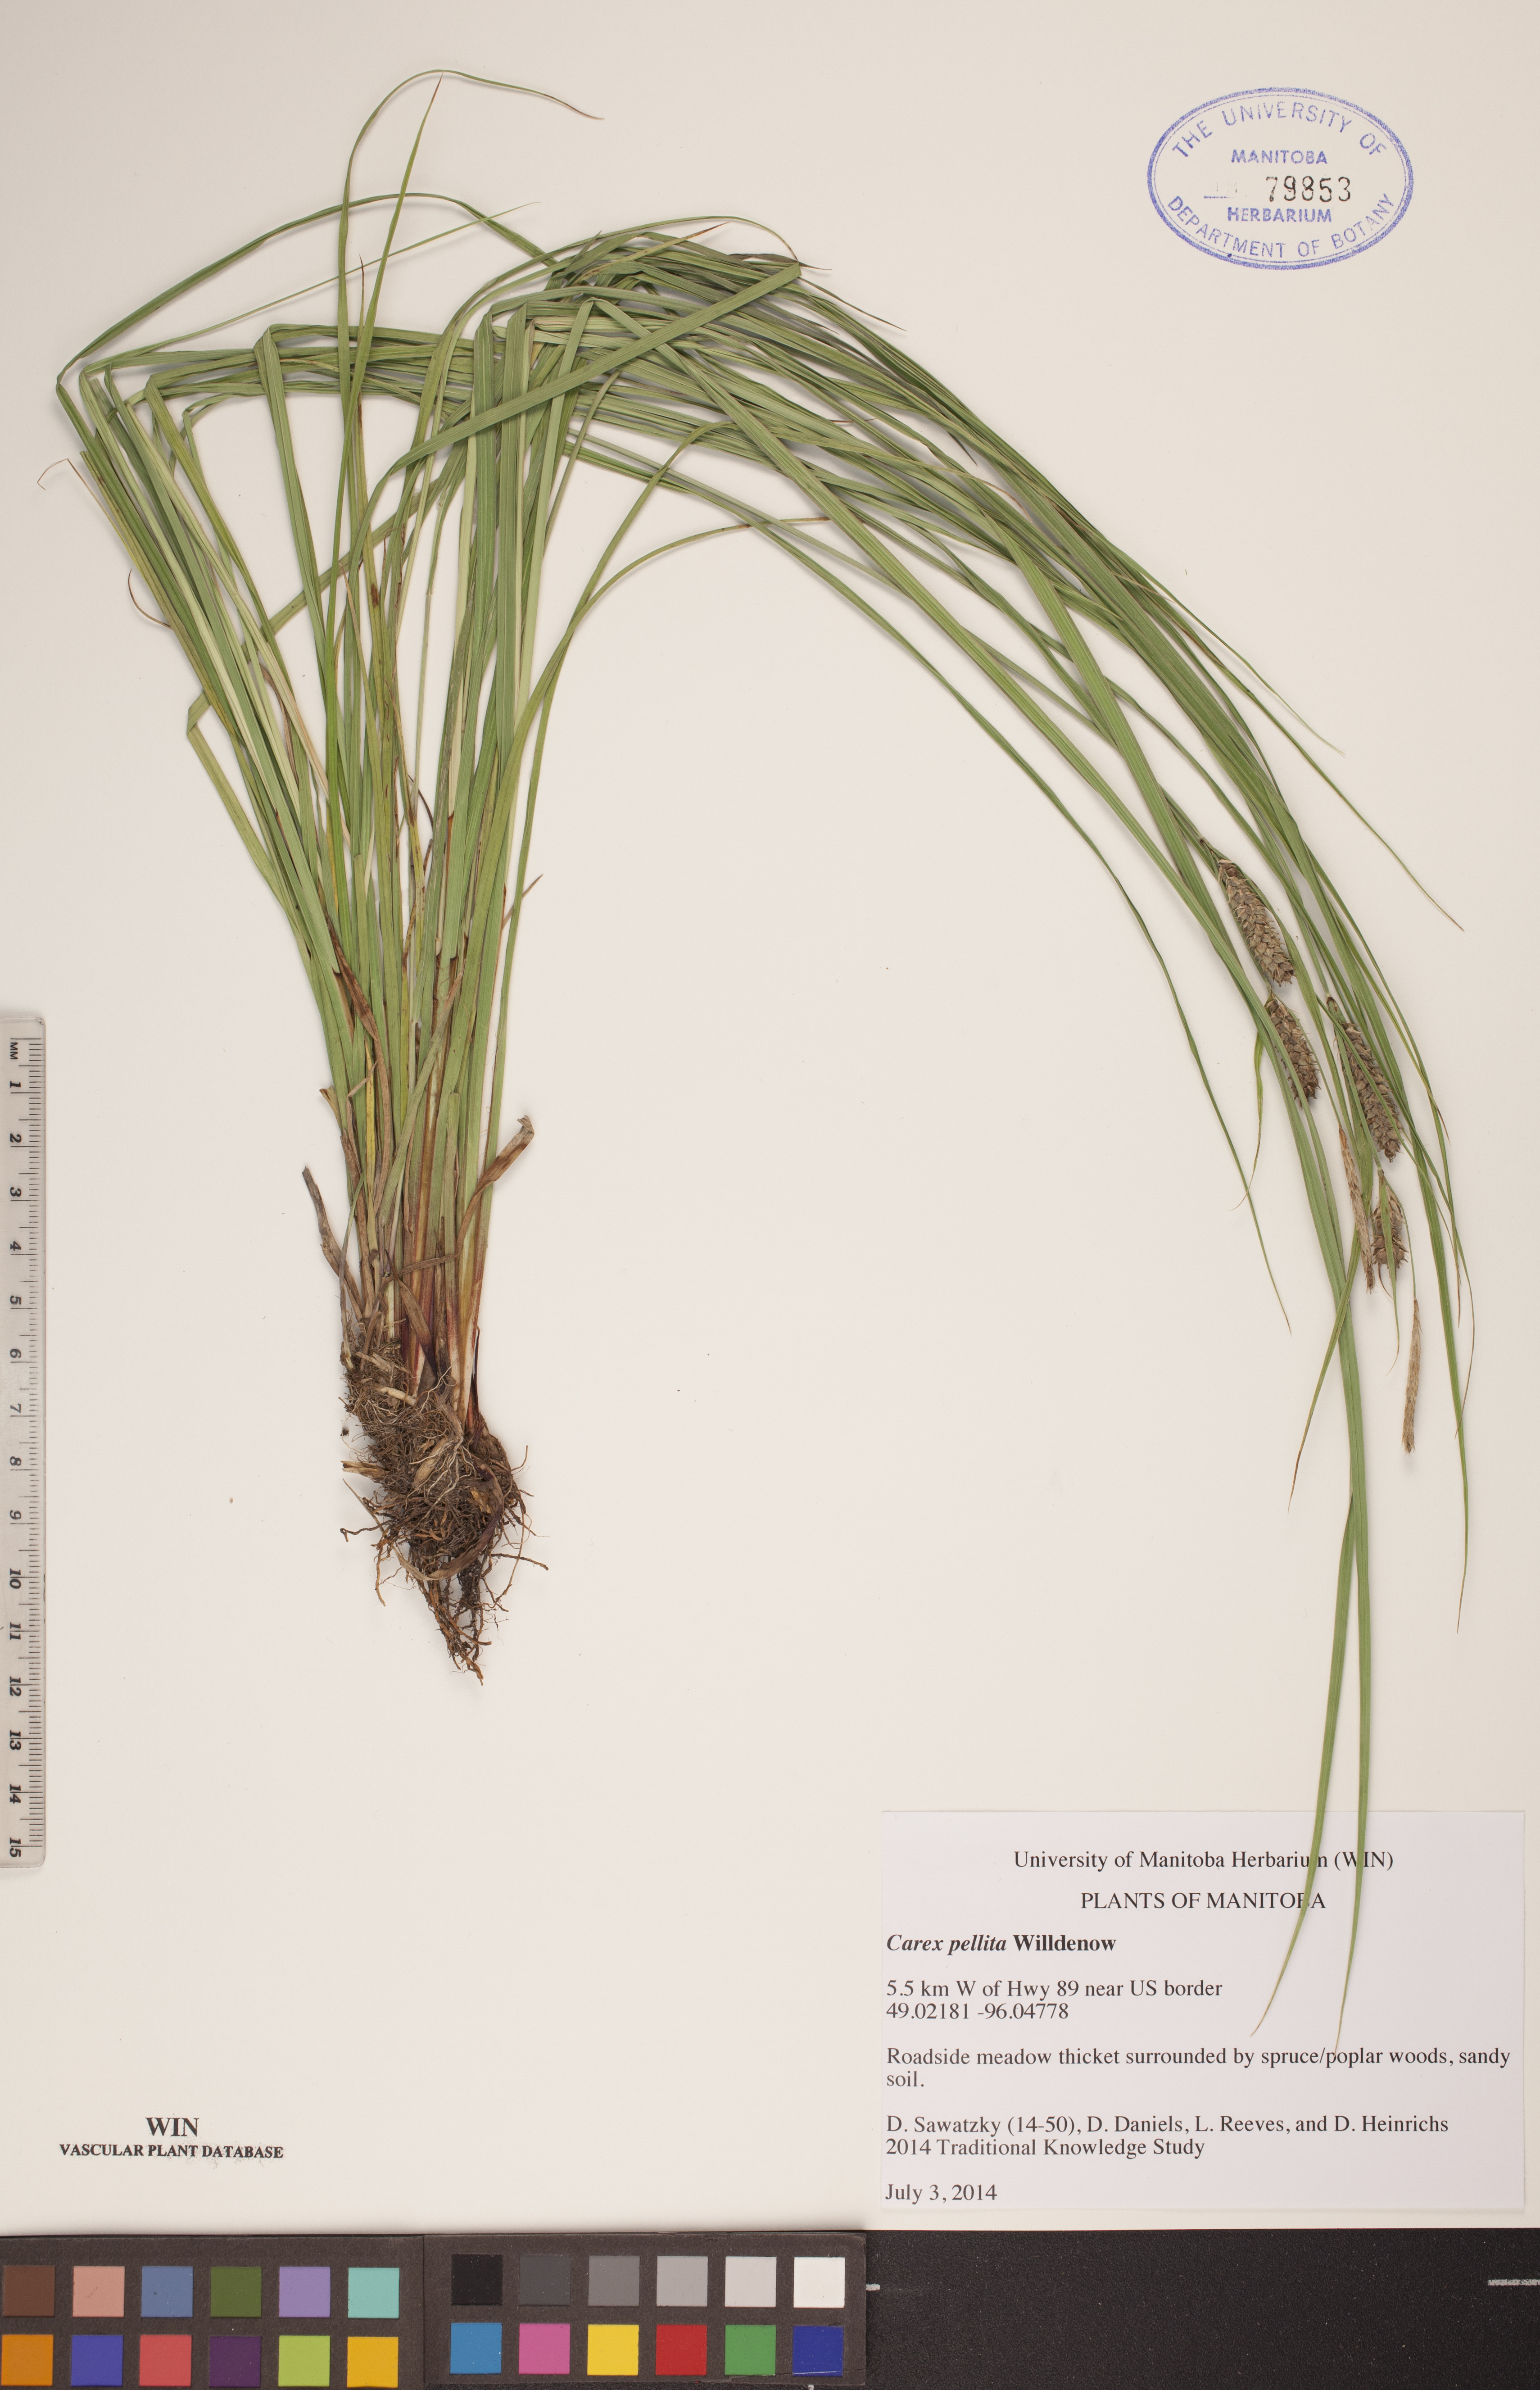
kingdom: Plantae
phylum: Tracheophyta
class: Liliopsida
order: Poales
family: Cyperaceae
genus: Carex
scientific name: Carex pellita
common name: Woolly sedge
